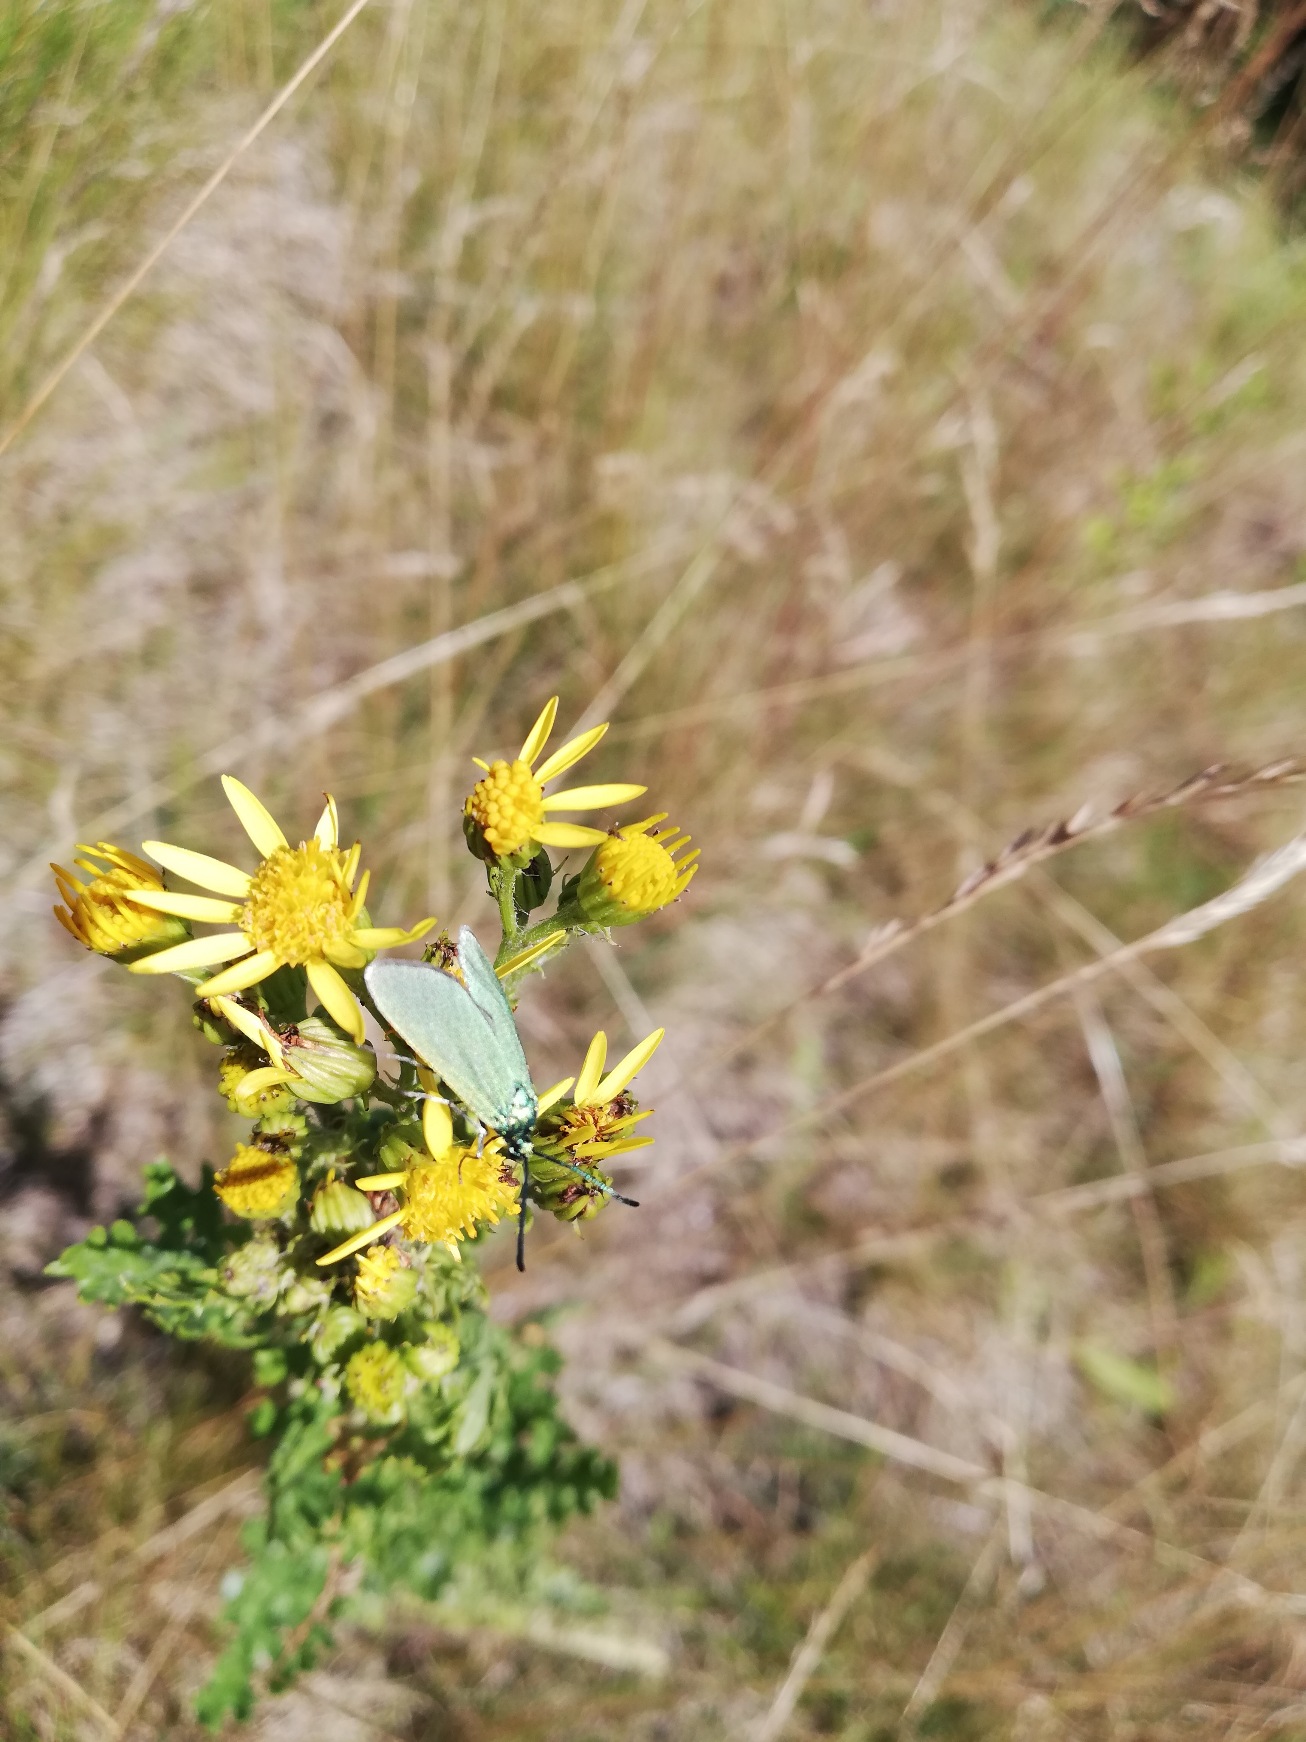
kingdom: Animalia
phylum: Arthropoda
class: Insecta
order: Lepidoptera
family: Zygaenidae
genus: Adscita
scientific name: Adscita statices
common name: Metalvinge
